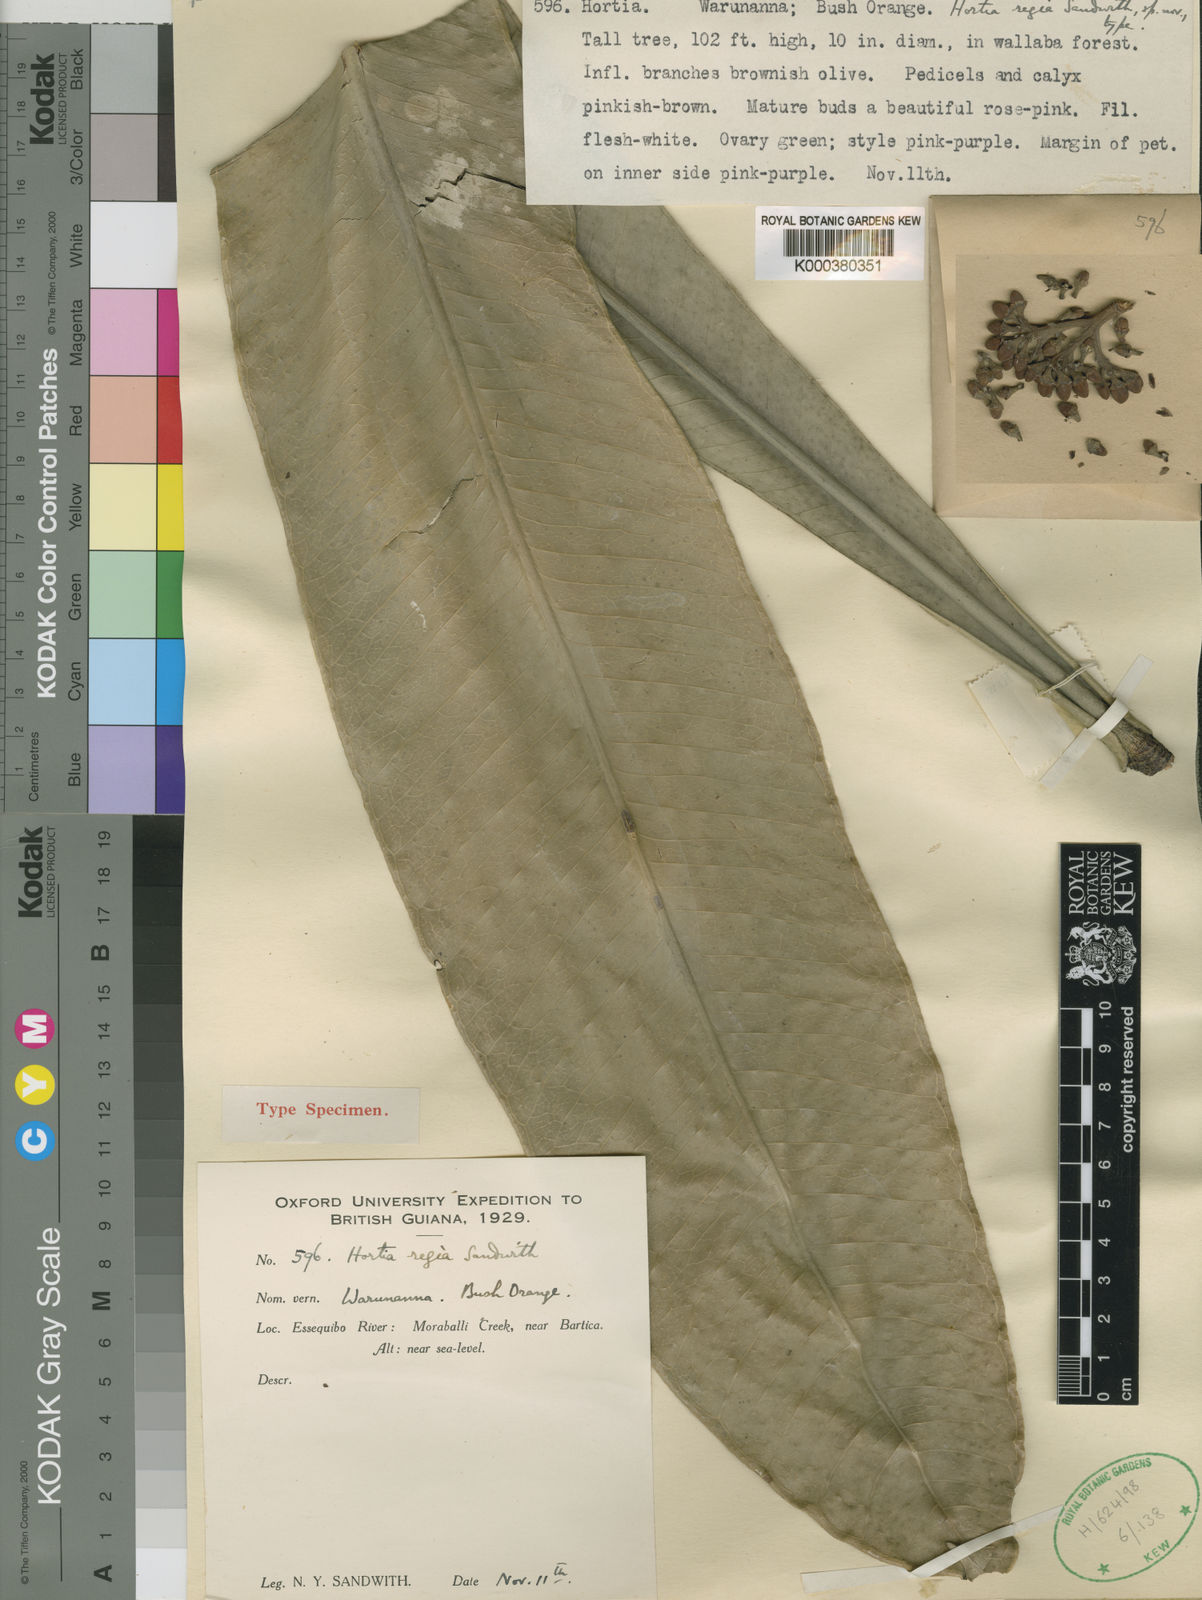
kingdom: Plantae
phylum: Tracheophyta
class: Magnoliopsida
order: Sapindales
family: Rutaceae
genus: Hortia
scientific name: Hortia regia
